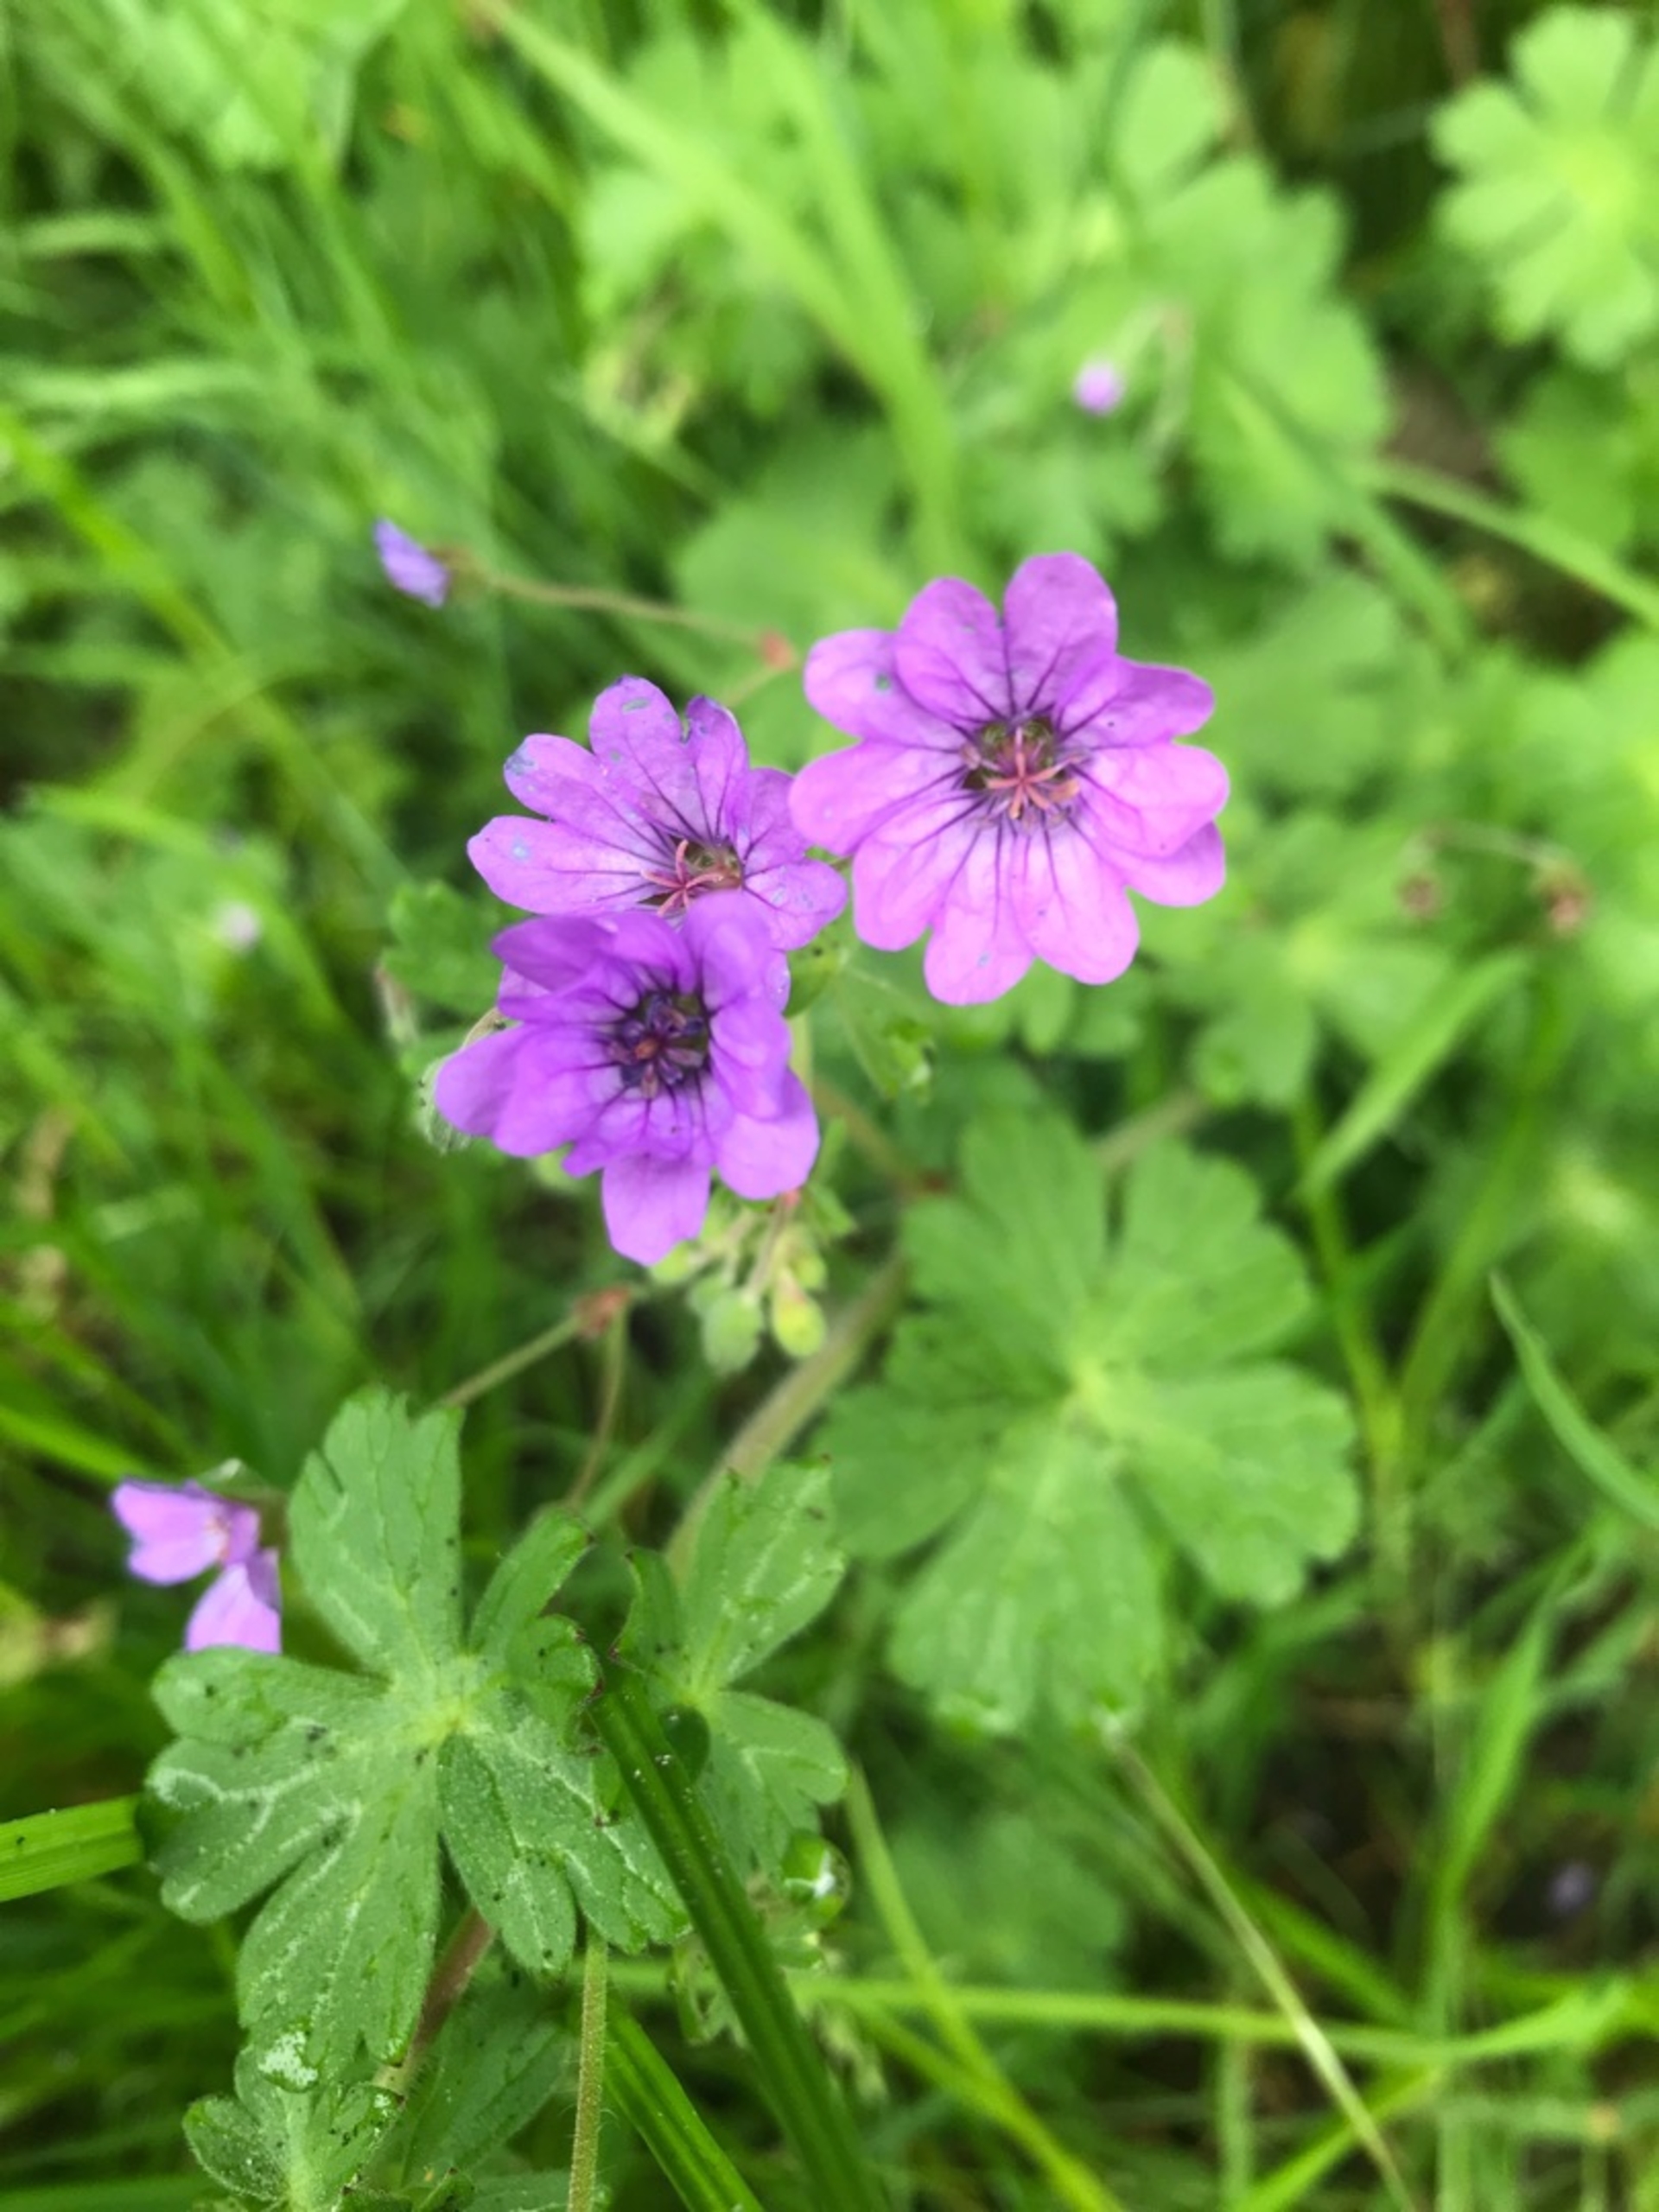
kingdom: Plantae
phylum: Tracheophyta
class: Magnoliopsida
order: Geraniales
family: Geraniaceae
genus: Geranium
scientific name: Geranium pyrenaicum
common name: Pyrenæisk storkenæb
